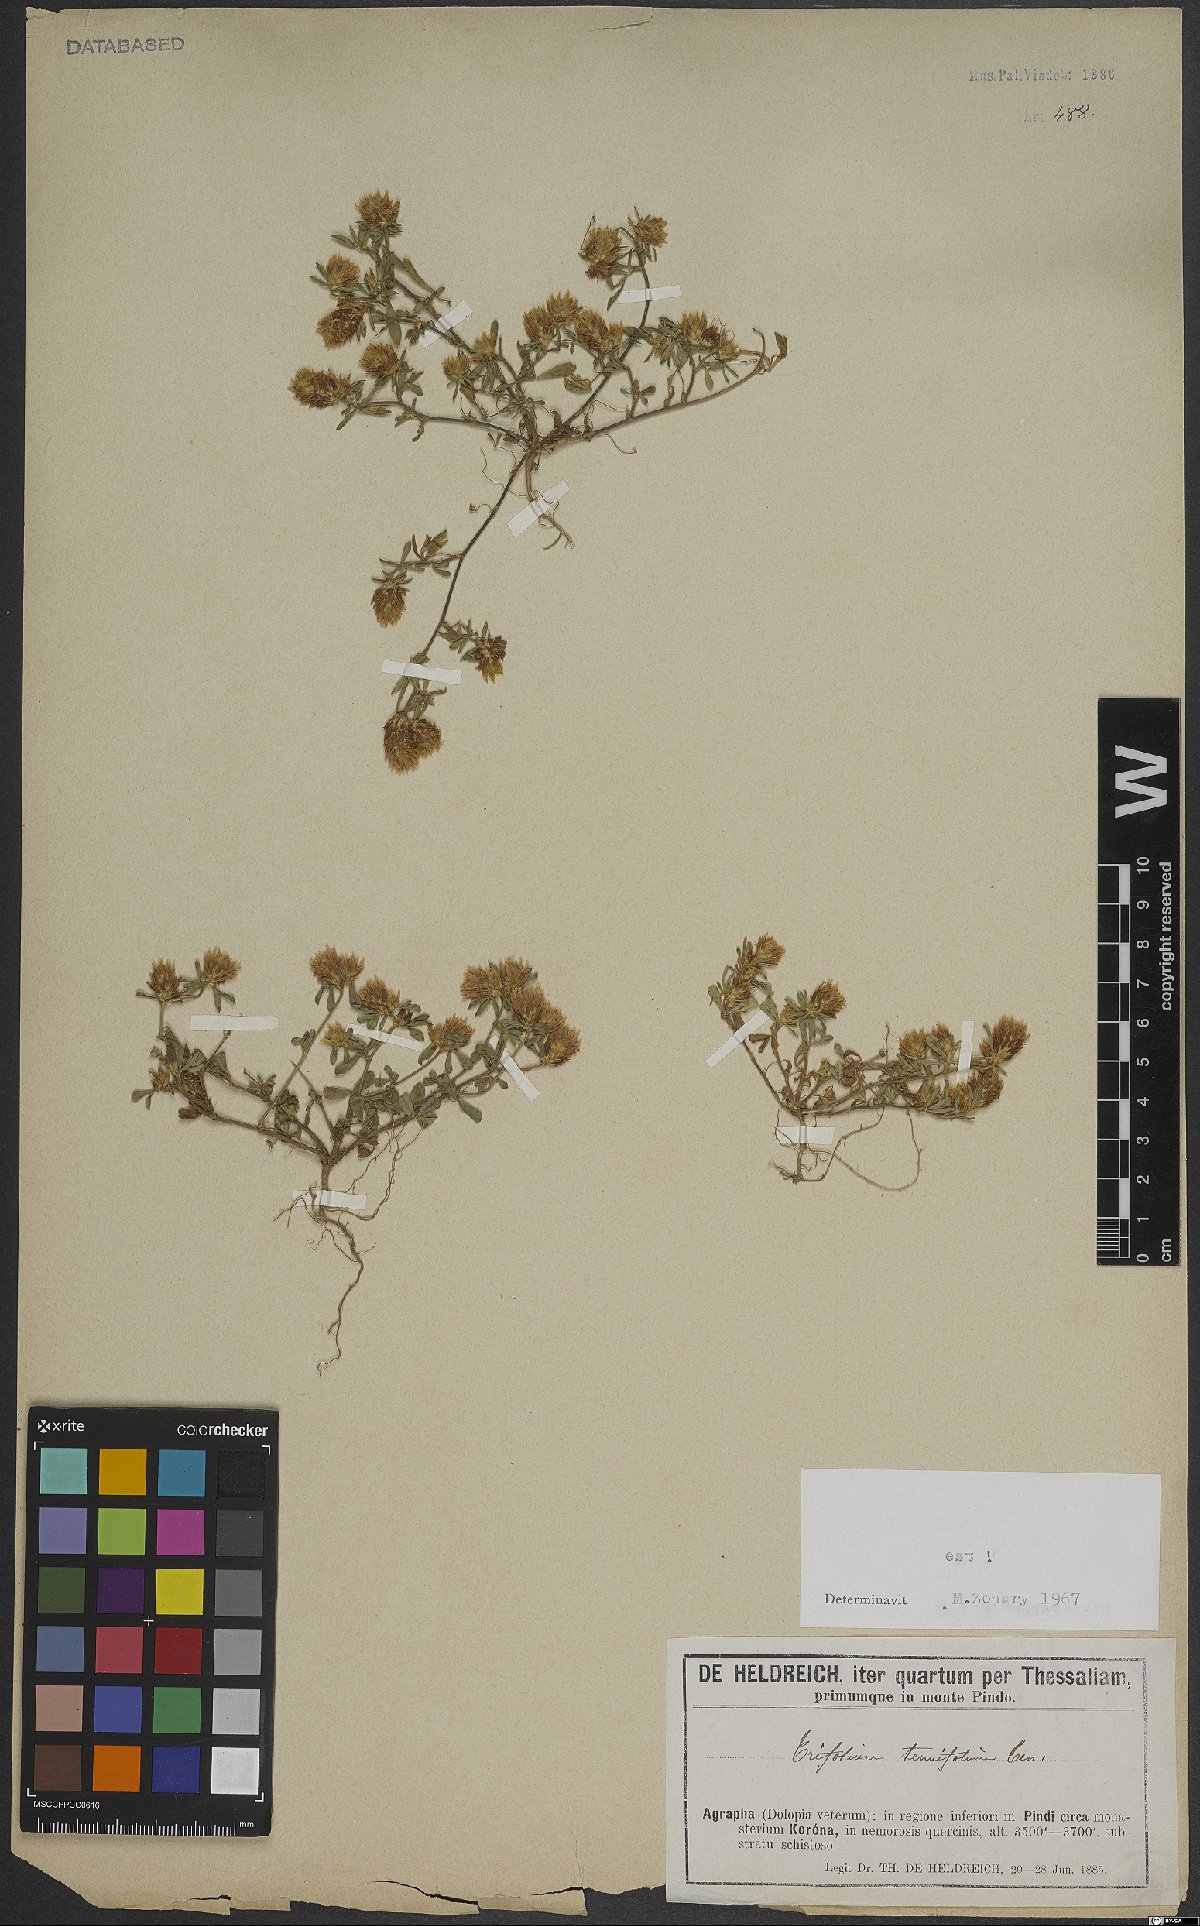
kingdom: Plantae
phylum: Tracheophyta
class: Magnoliopsida
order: Fabales
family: Fabaceae
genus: Trifolium
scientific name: Trifolium tenuifolium
